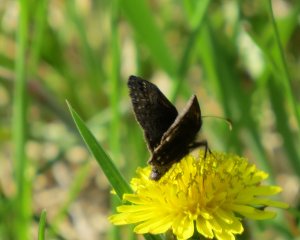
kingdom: Animalia
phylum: Arthropoda
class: Insecta
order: Lepidoptera
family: Hesperiidae
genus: Erynnis
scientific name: Erynnis icelus
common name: Dreamy Duskywing
